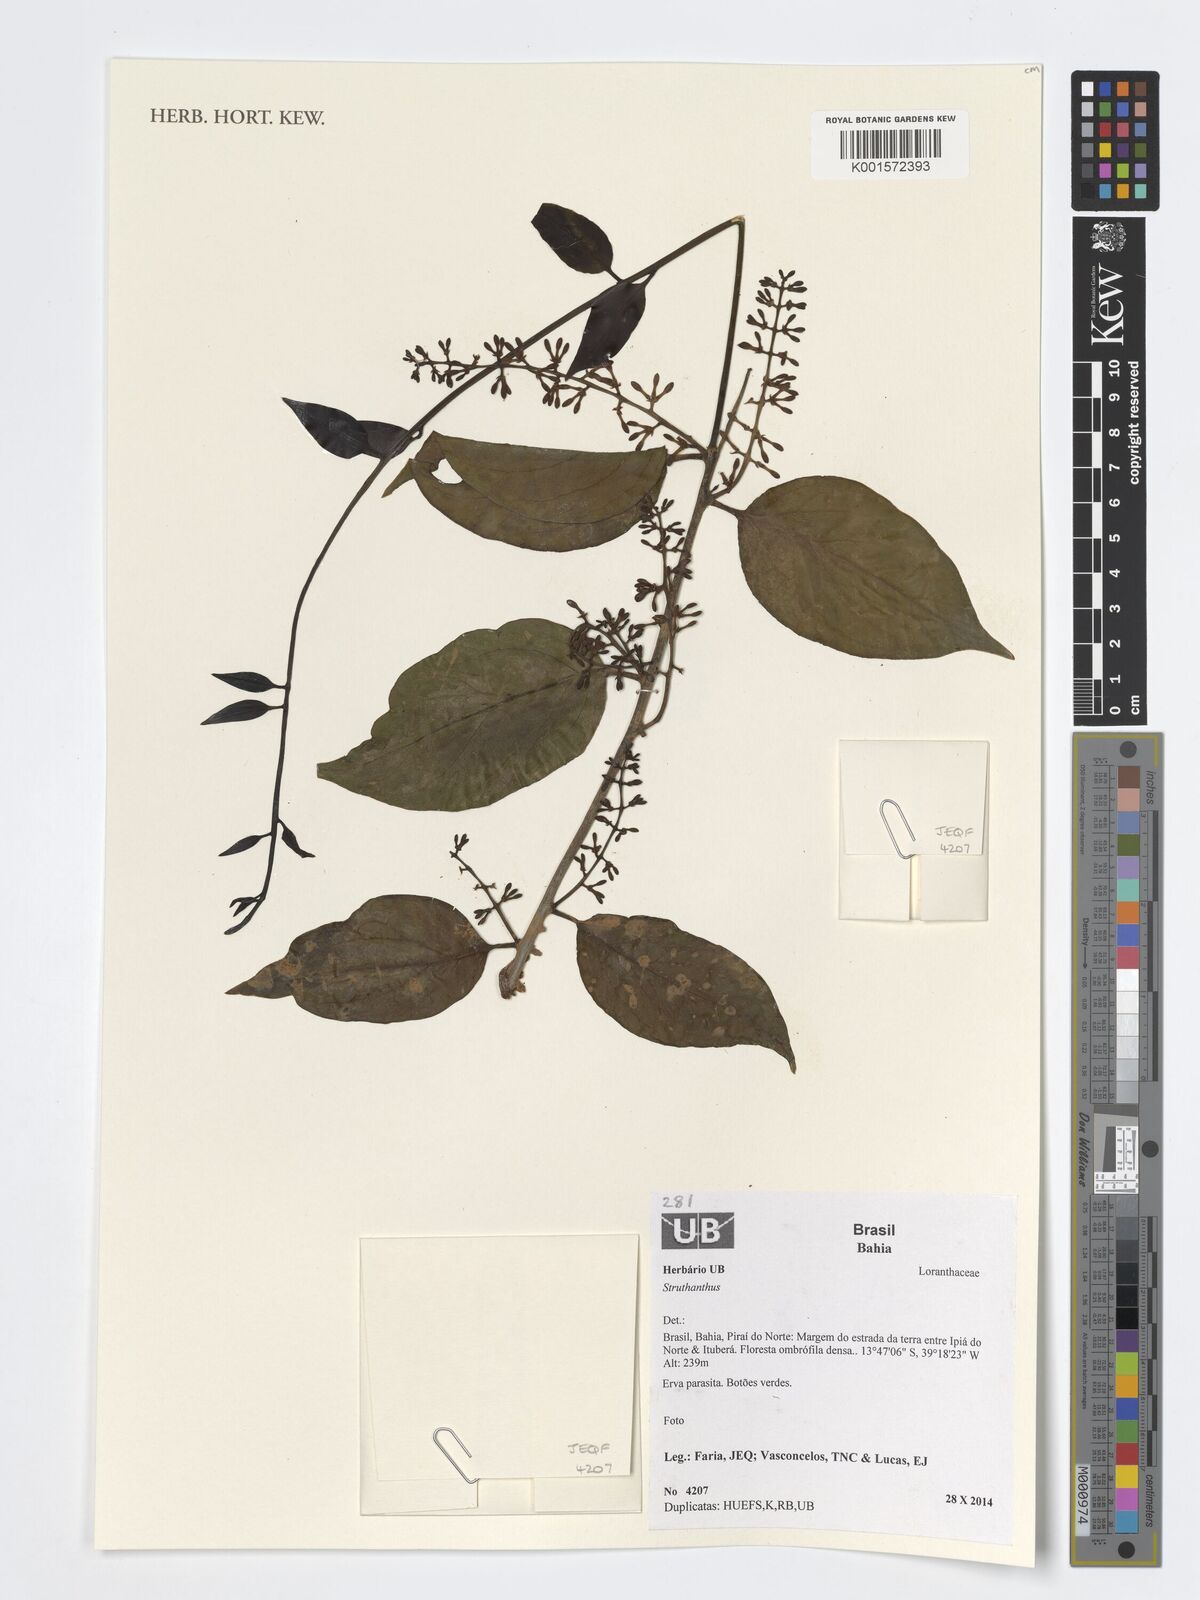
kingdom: Plantae
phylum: Tracheophyta
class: Magnoliopsida
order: Santalales
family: Loranthaceae
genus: Struthanthus
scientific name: Struthanthus
